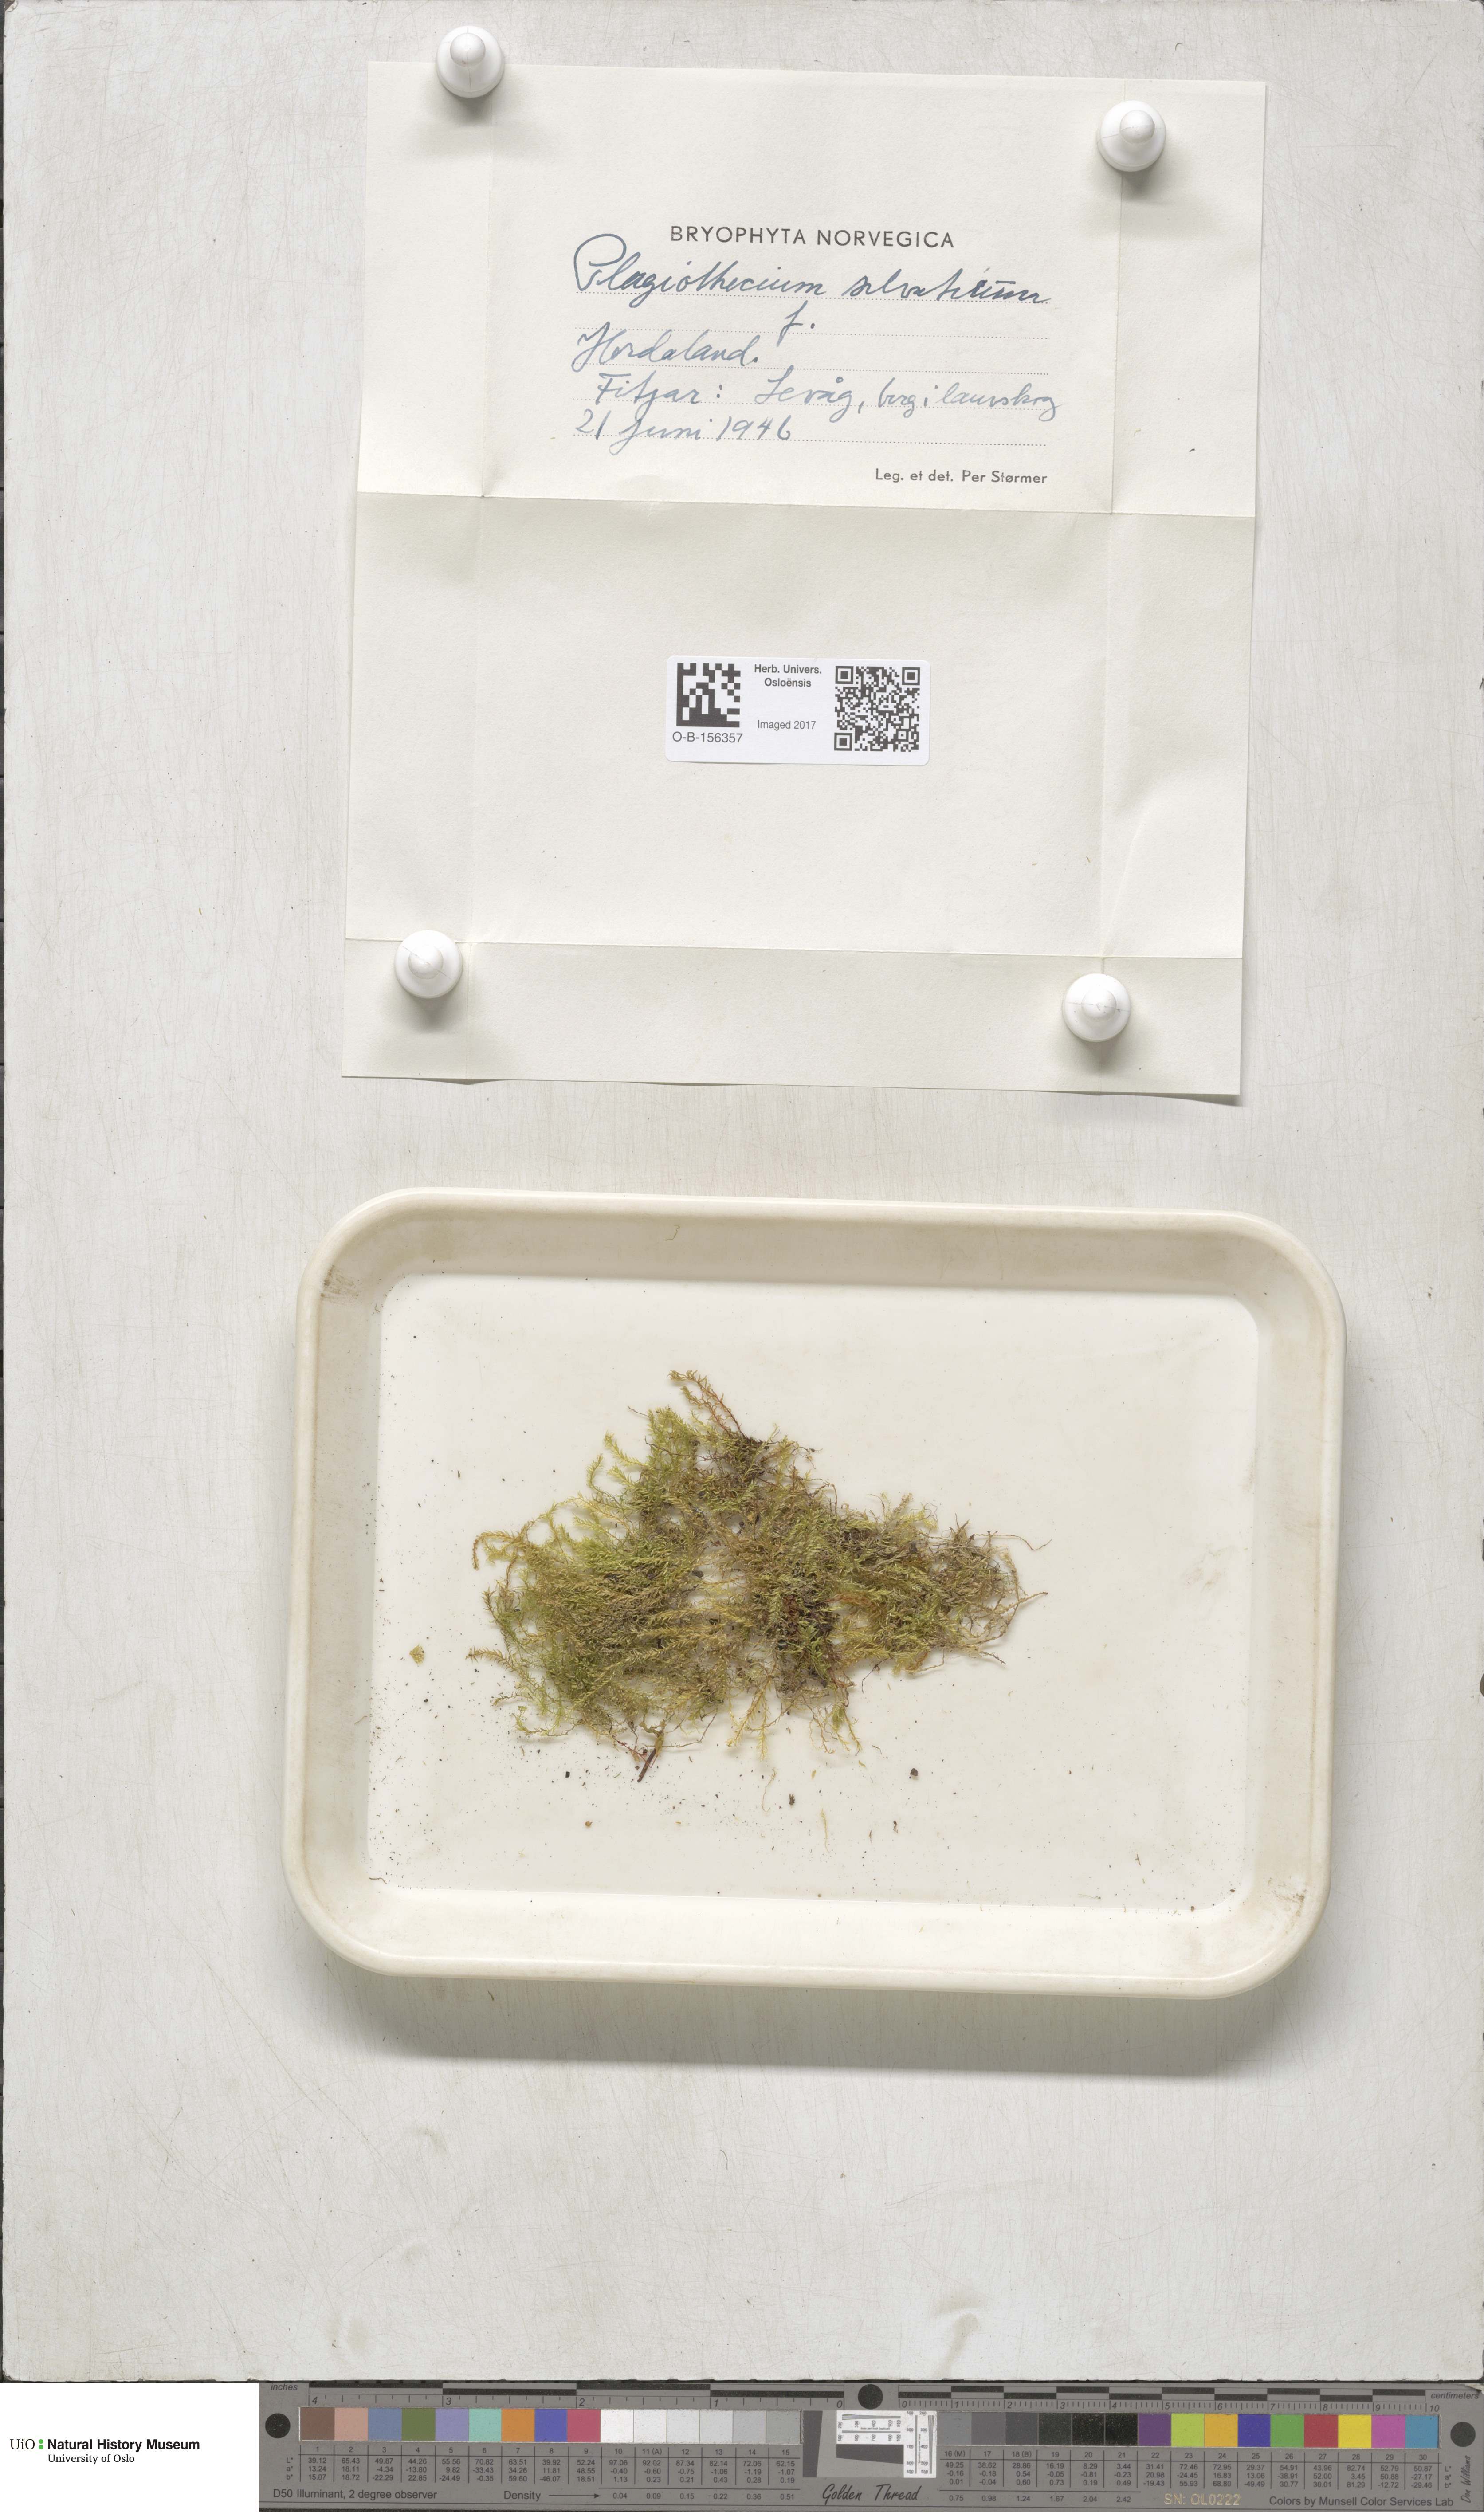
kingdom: Plantae
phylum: Bryophyta
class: Bryopsida
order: Hypnales
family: Plagiotheciaceae
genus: Plagiothecium
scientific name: Plagiothecium nemorale
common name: Woodsy silk-moss
